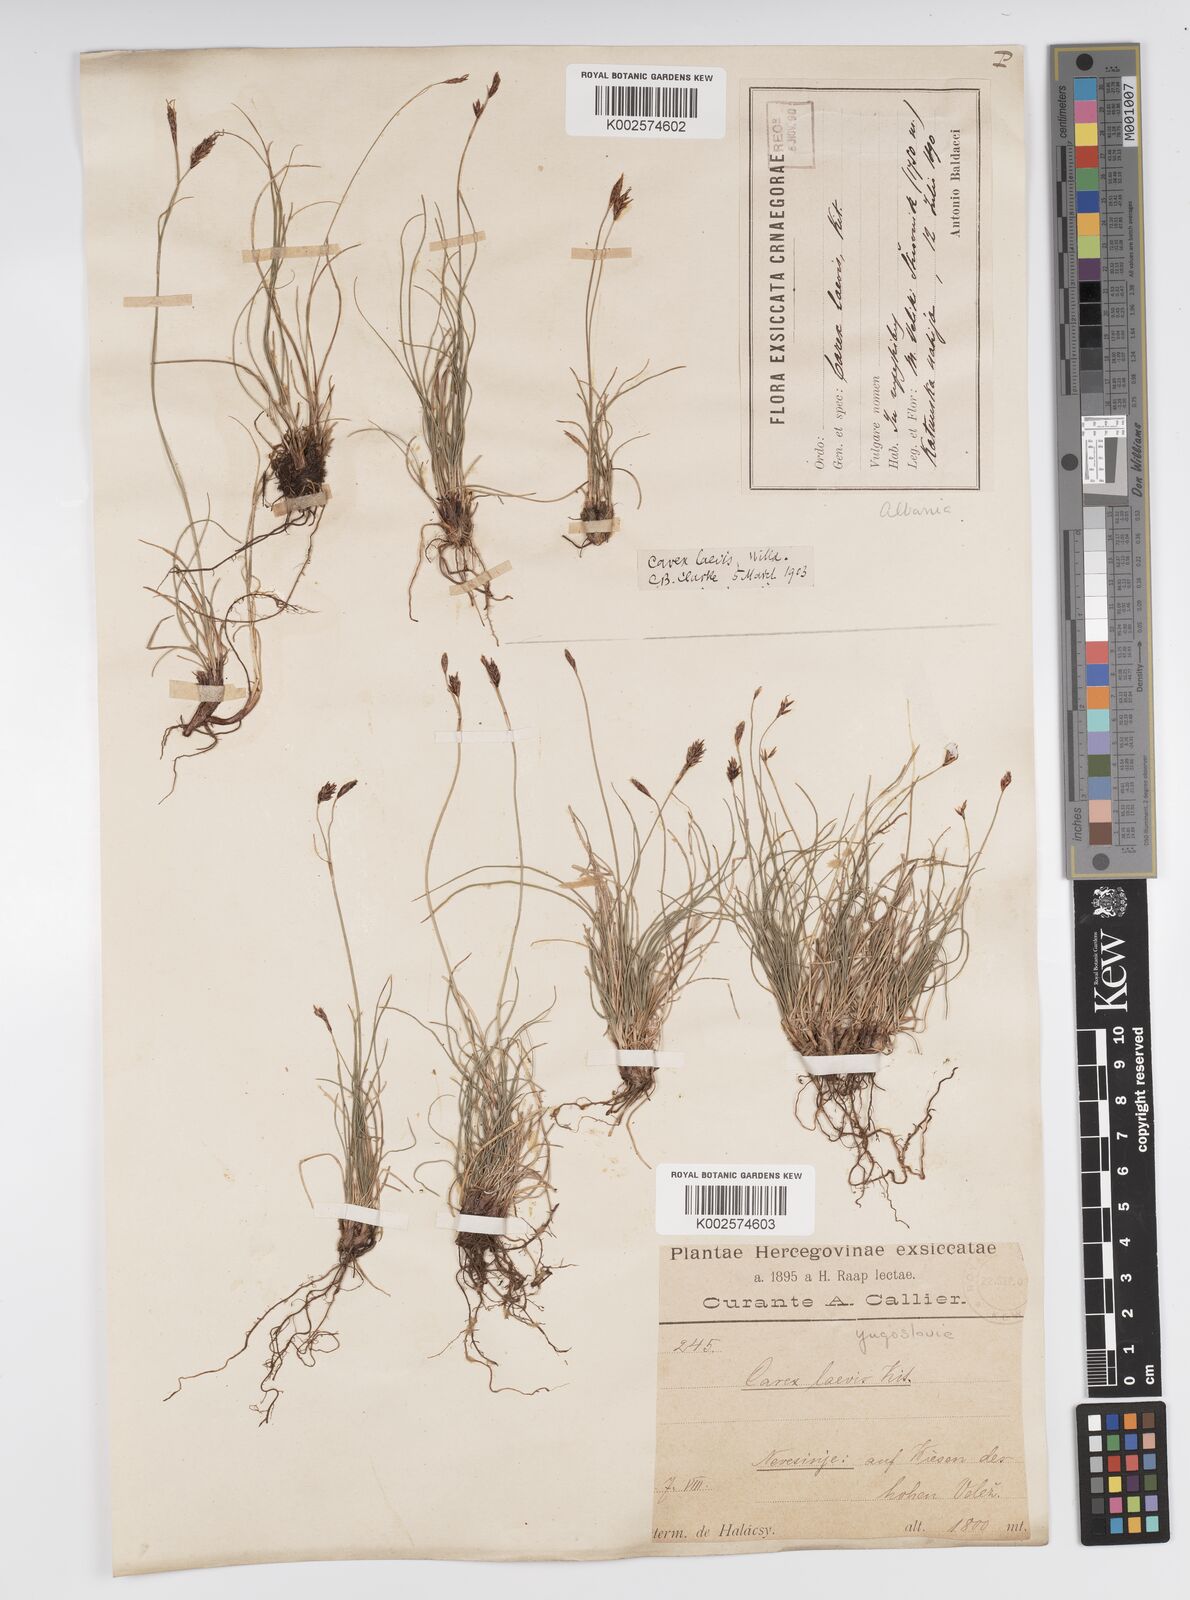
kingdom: Plantae
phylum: Tracheophyta
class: Liliopsida
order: Poales
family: Cyperaceae
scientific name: Cyperaceae
